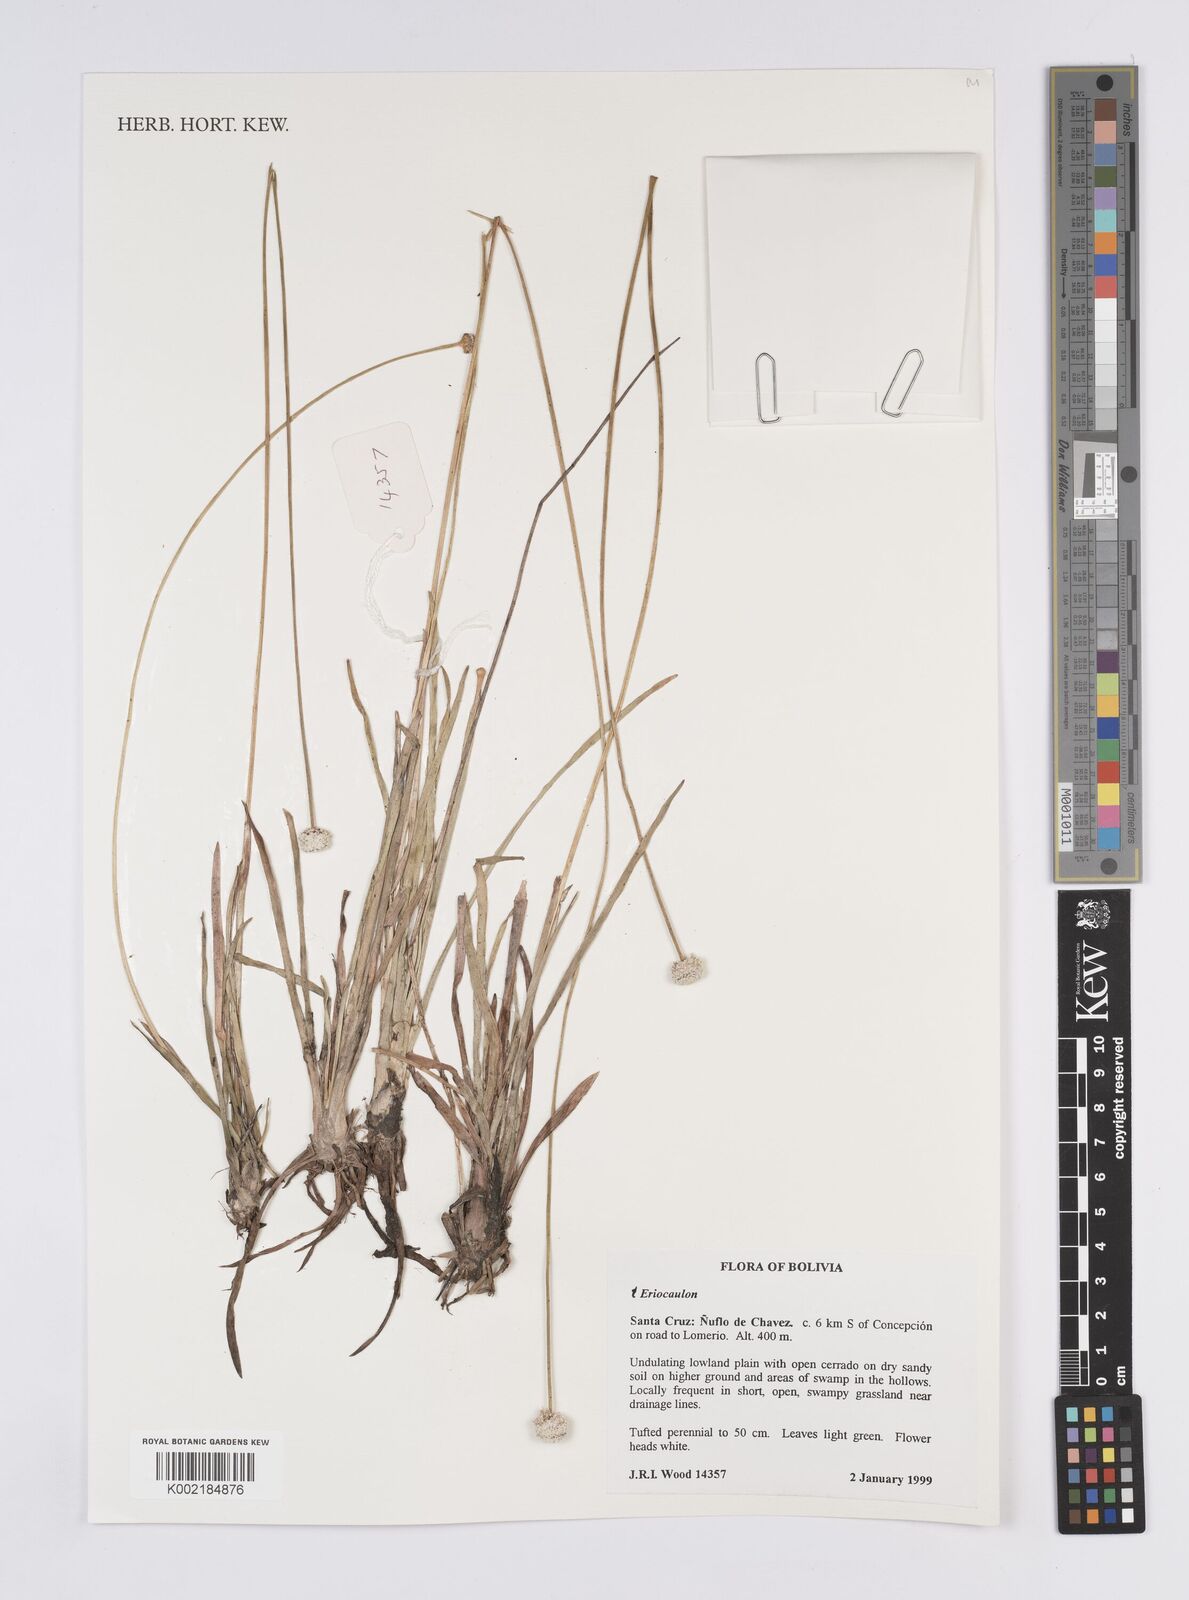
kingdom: Plantae
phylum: Tracheophyta
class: Liliopsida
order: Poales
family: Eriocaulaceae
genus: Eriocaulon
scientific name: Eriocaulon
